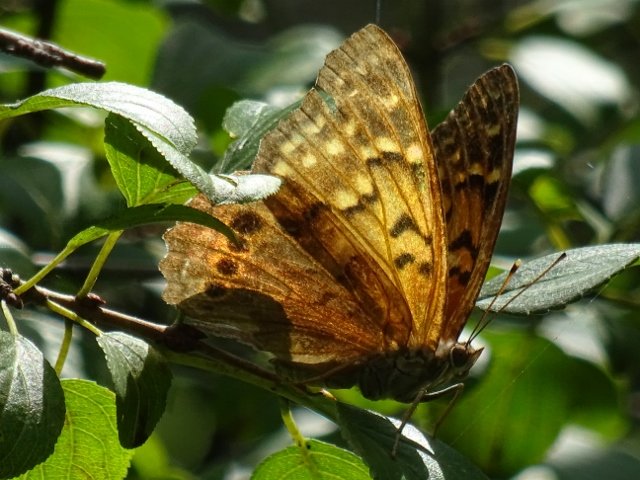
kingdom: Animalia
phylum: Arthropoda
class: Insecta
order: Lepidoptera
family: Nymphalidae
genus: Asterocampa
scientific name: Asterocampa clyton
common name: Tawny Emperor
